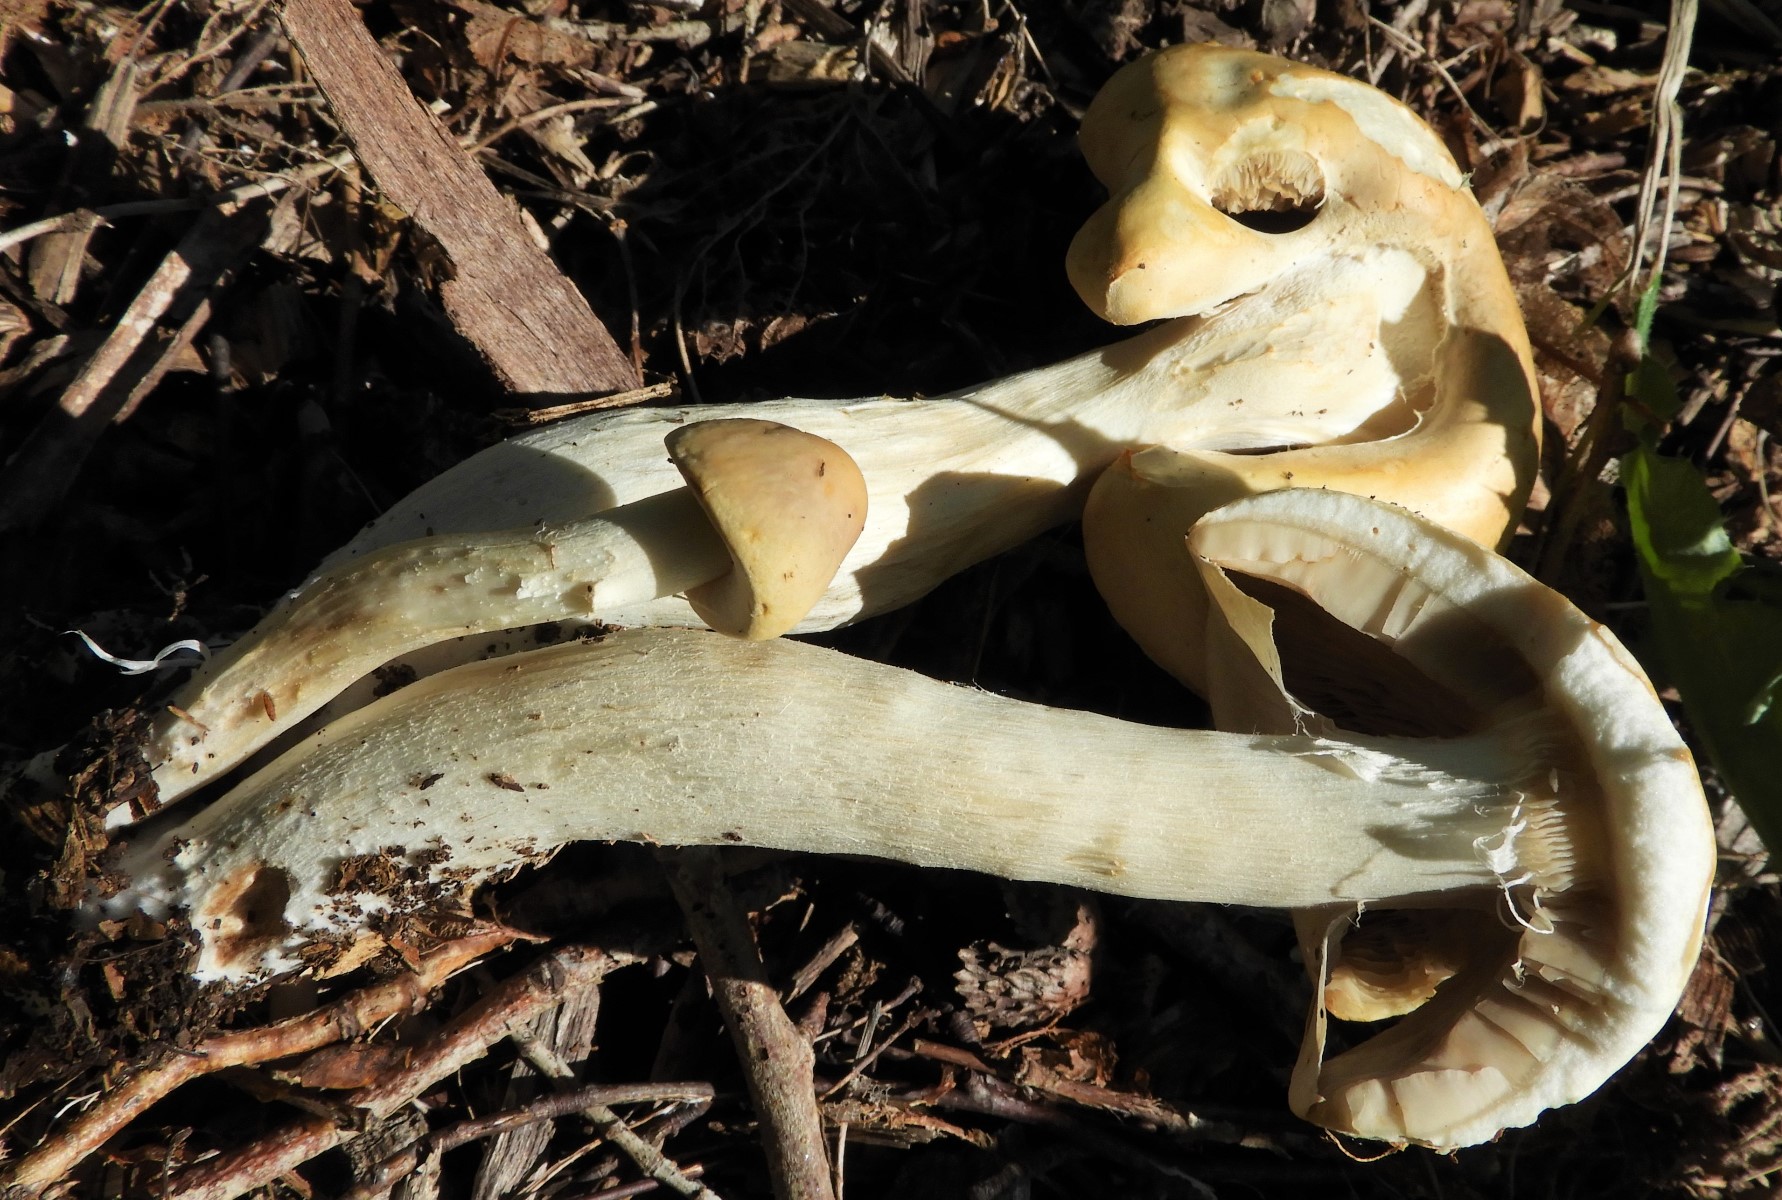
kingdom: Fungi
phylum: Basidiomycota
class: Agaricomycetes
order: Agaricales
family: Strophariaceae
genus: Agrocybe
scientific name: Agrocybe rivulosa
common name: året agerhat
